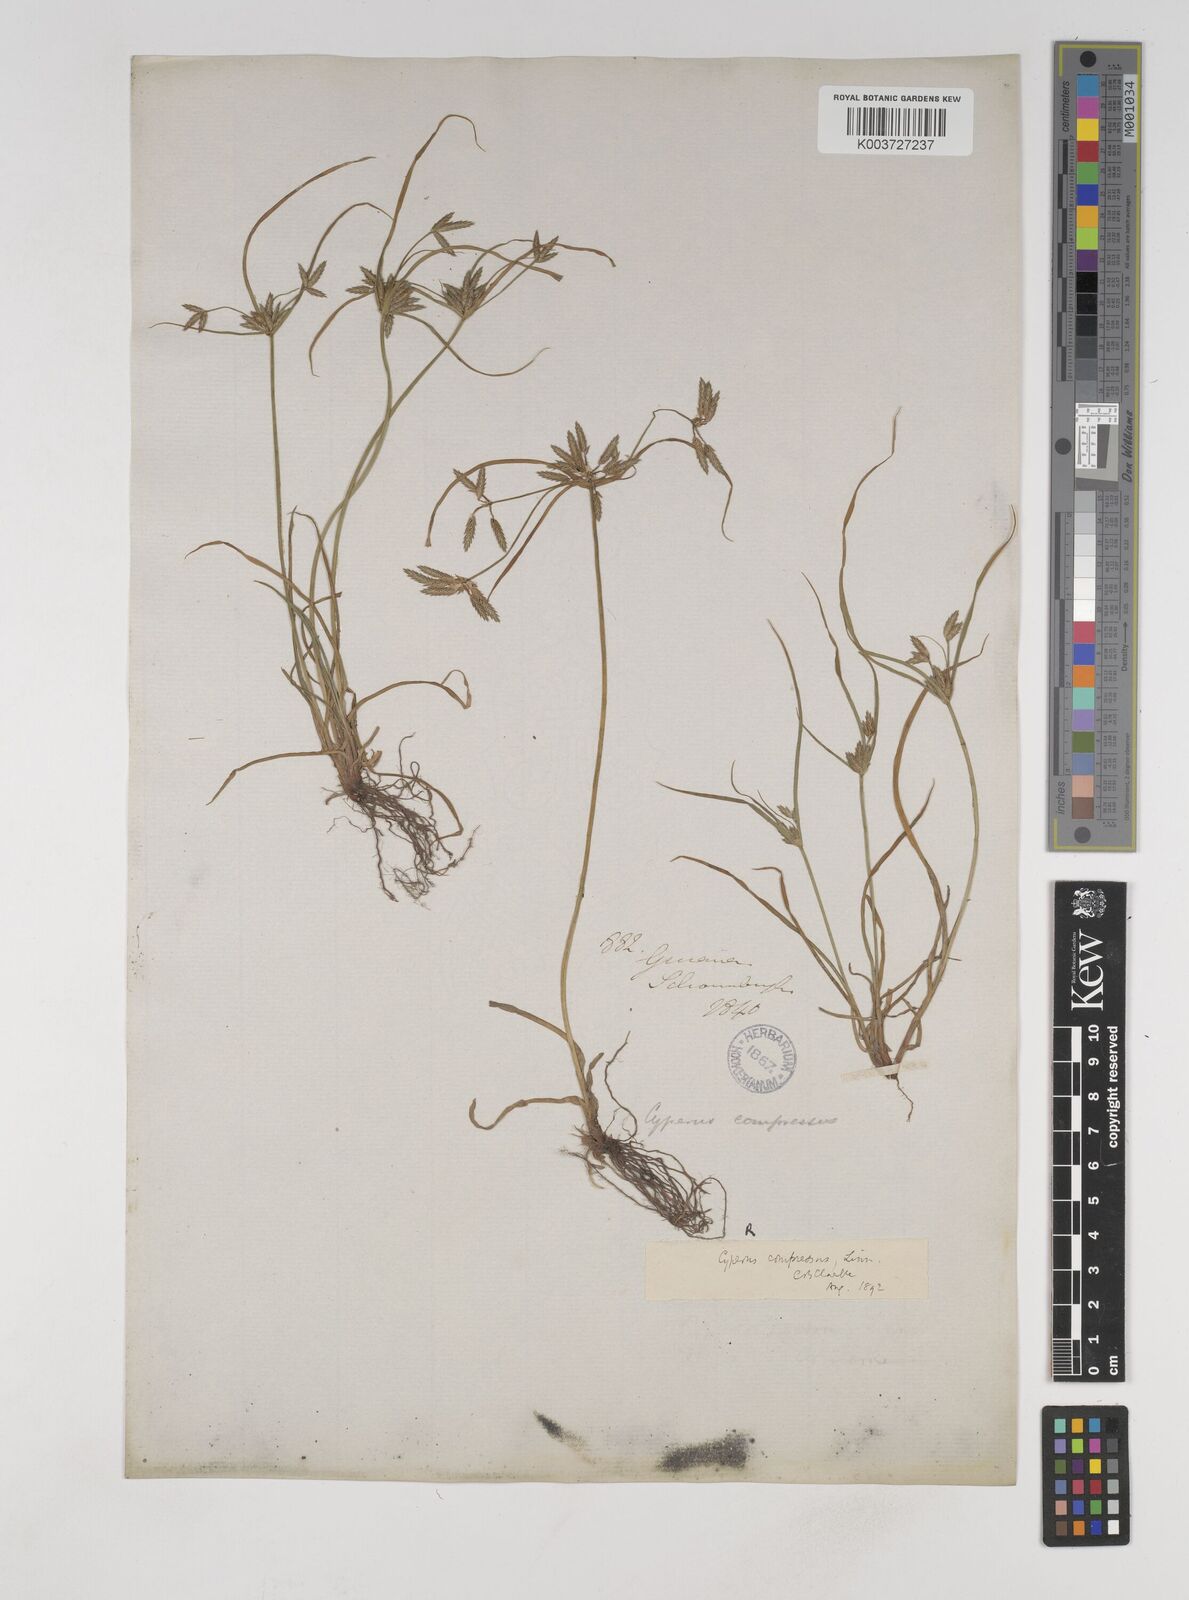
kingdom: Plantae
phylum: Tracheophyta
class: Liliopsida
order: Poales
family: Cyperaceae
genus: Cyperus
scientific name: Cyperus compressus
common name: Poorland flatsedge
